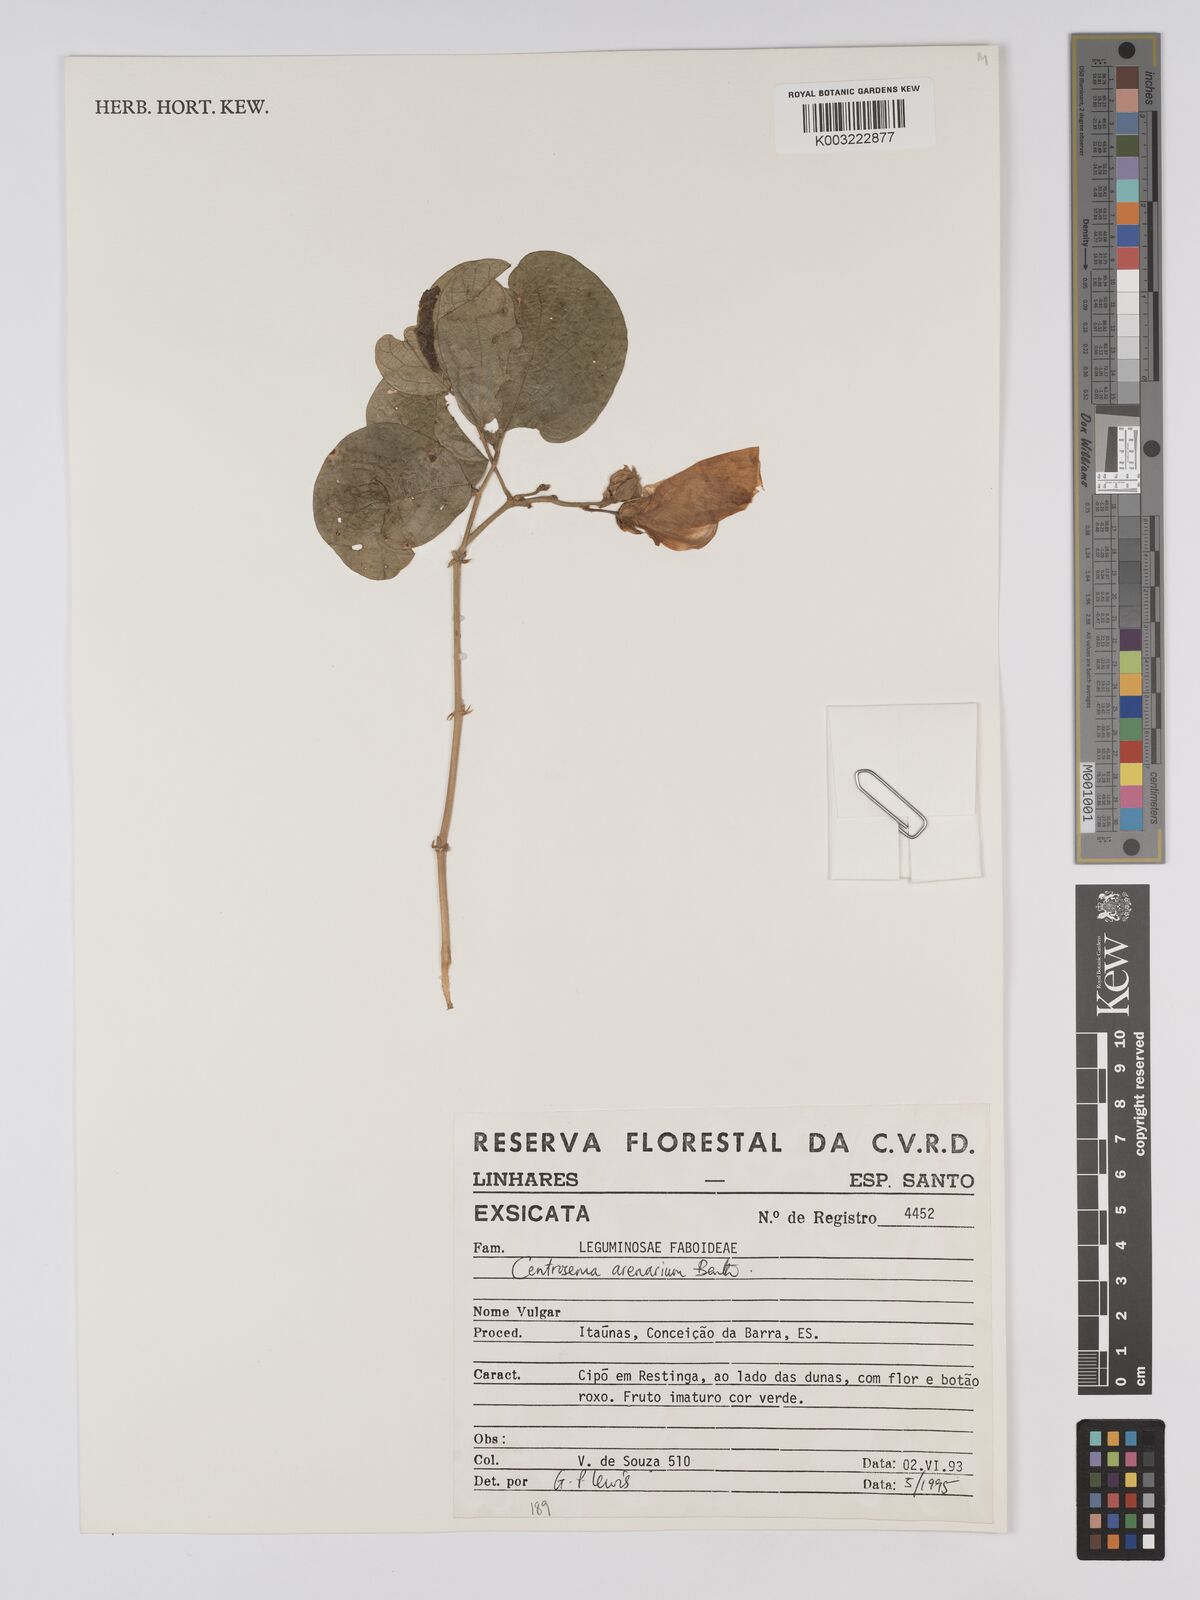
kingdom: Plantae
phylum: Tracheophyta
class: Magnoliopsida
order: Fabales
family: Fabaceae
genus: Centrosema
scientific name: Centrosema arenarium
